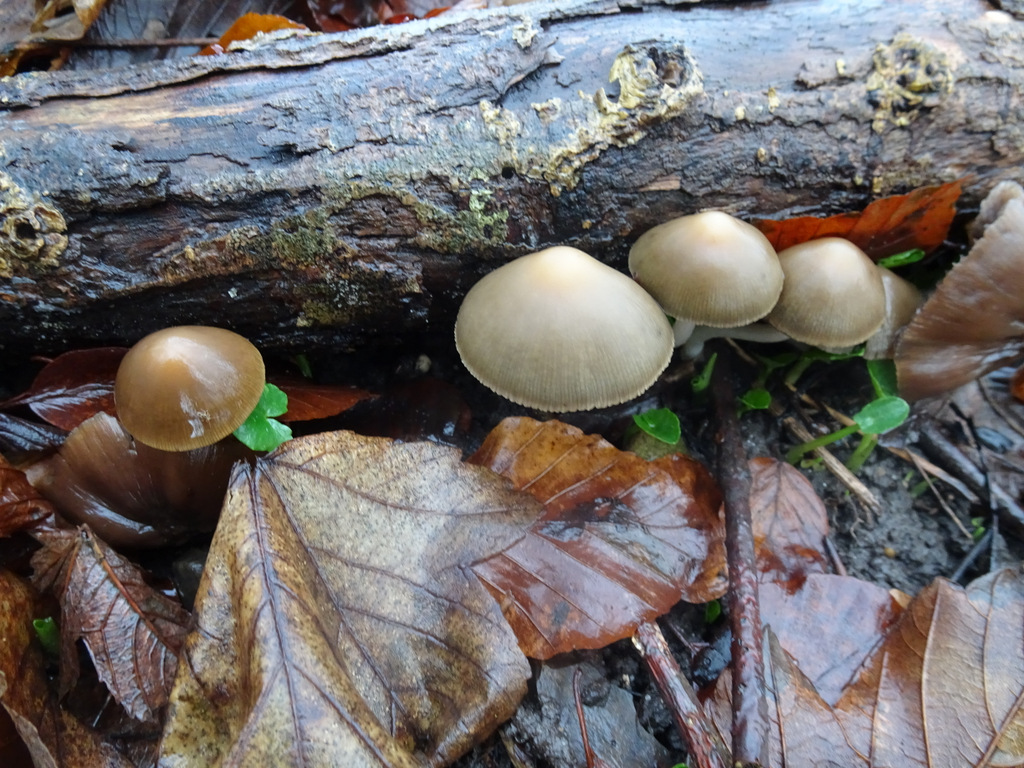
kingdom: Fungi
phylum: Basidiomycota
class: Agaricomycetes
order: Agaricales
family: Psathyrellaceae
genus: Psathyrella
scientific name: Psathyrella piluliformis
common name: lysstokket mørkhat
